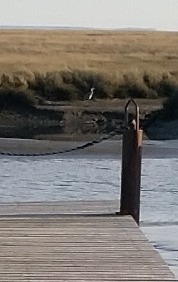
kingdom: Animalia
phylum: Chordata
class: Aves
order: Pelecaniformes
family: Ardeidae
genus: Ardea
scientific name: Ardea cinerea
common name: Fiskehejre
